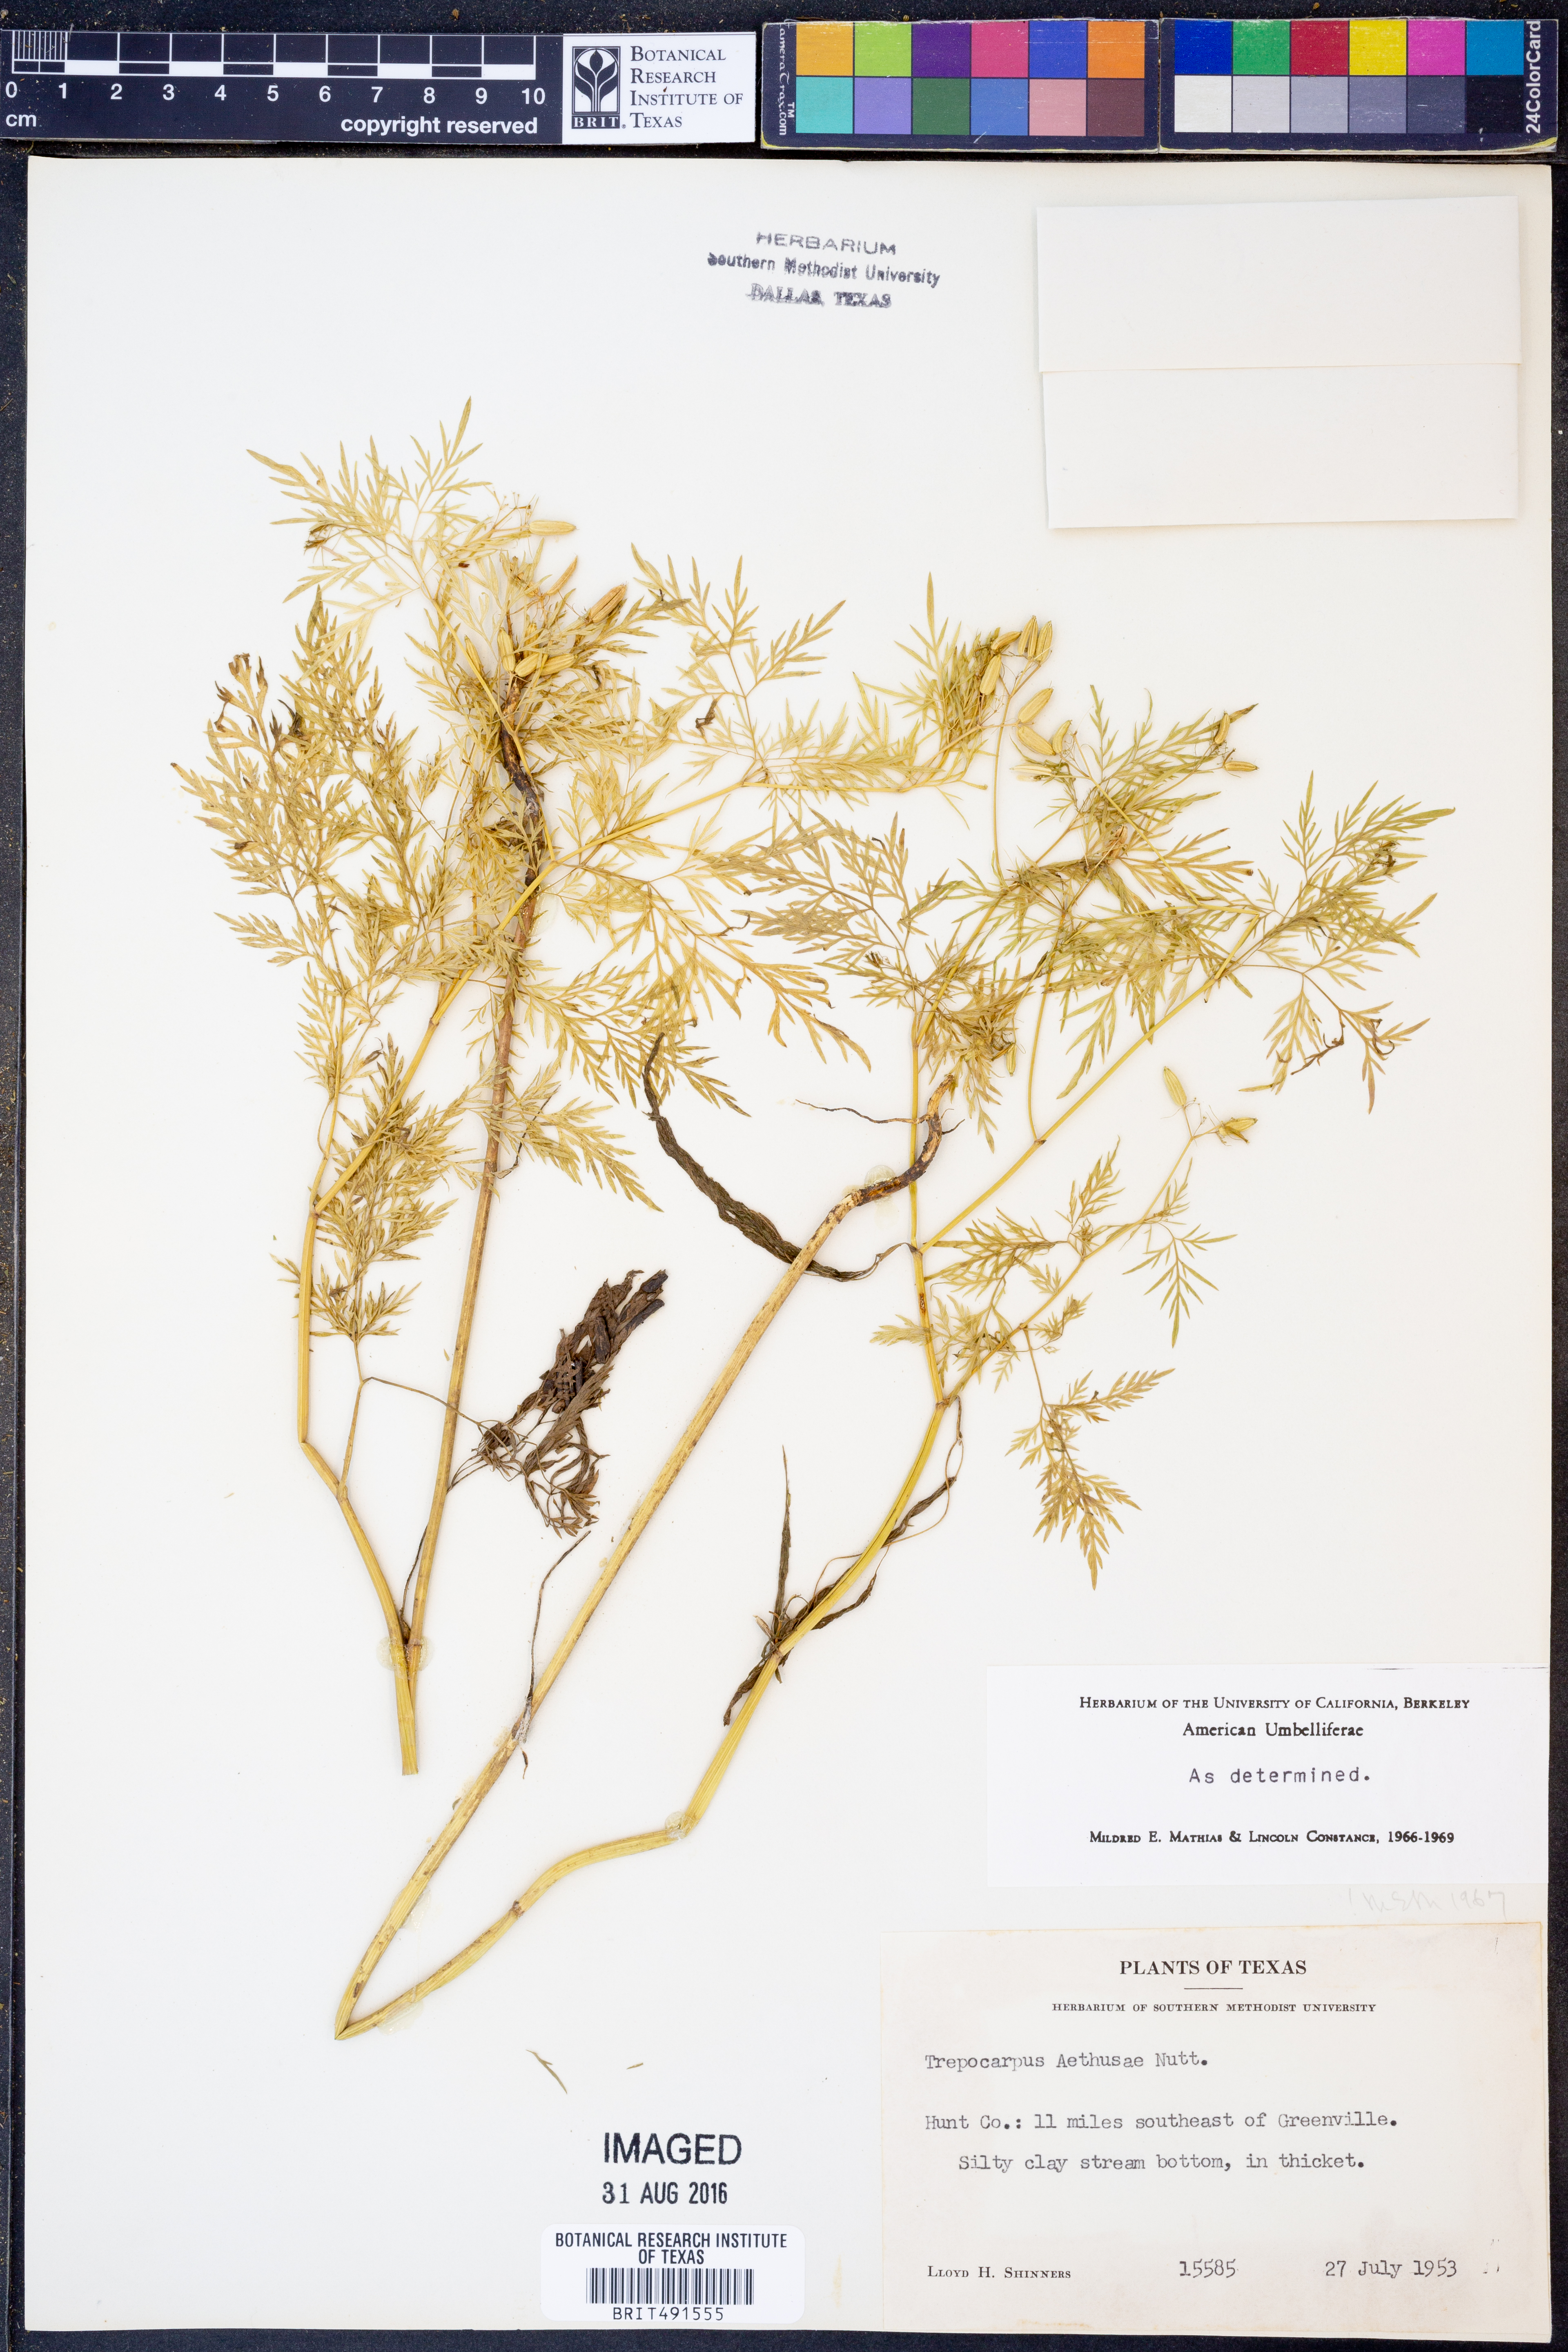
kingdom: Plantae
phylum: Tracheophyta
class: Magnoliopsida
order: Apiales
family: Apiaceae
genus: Trepocarpus
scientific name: Trepocarpus aethusae
